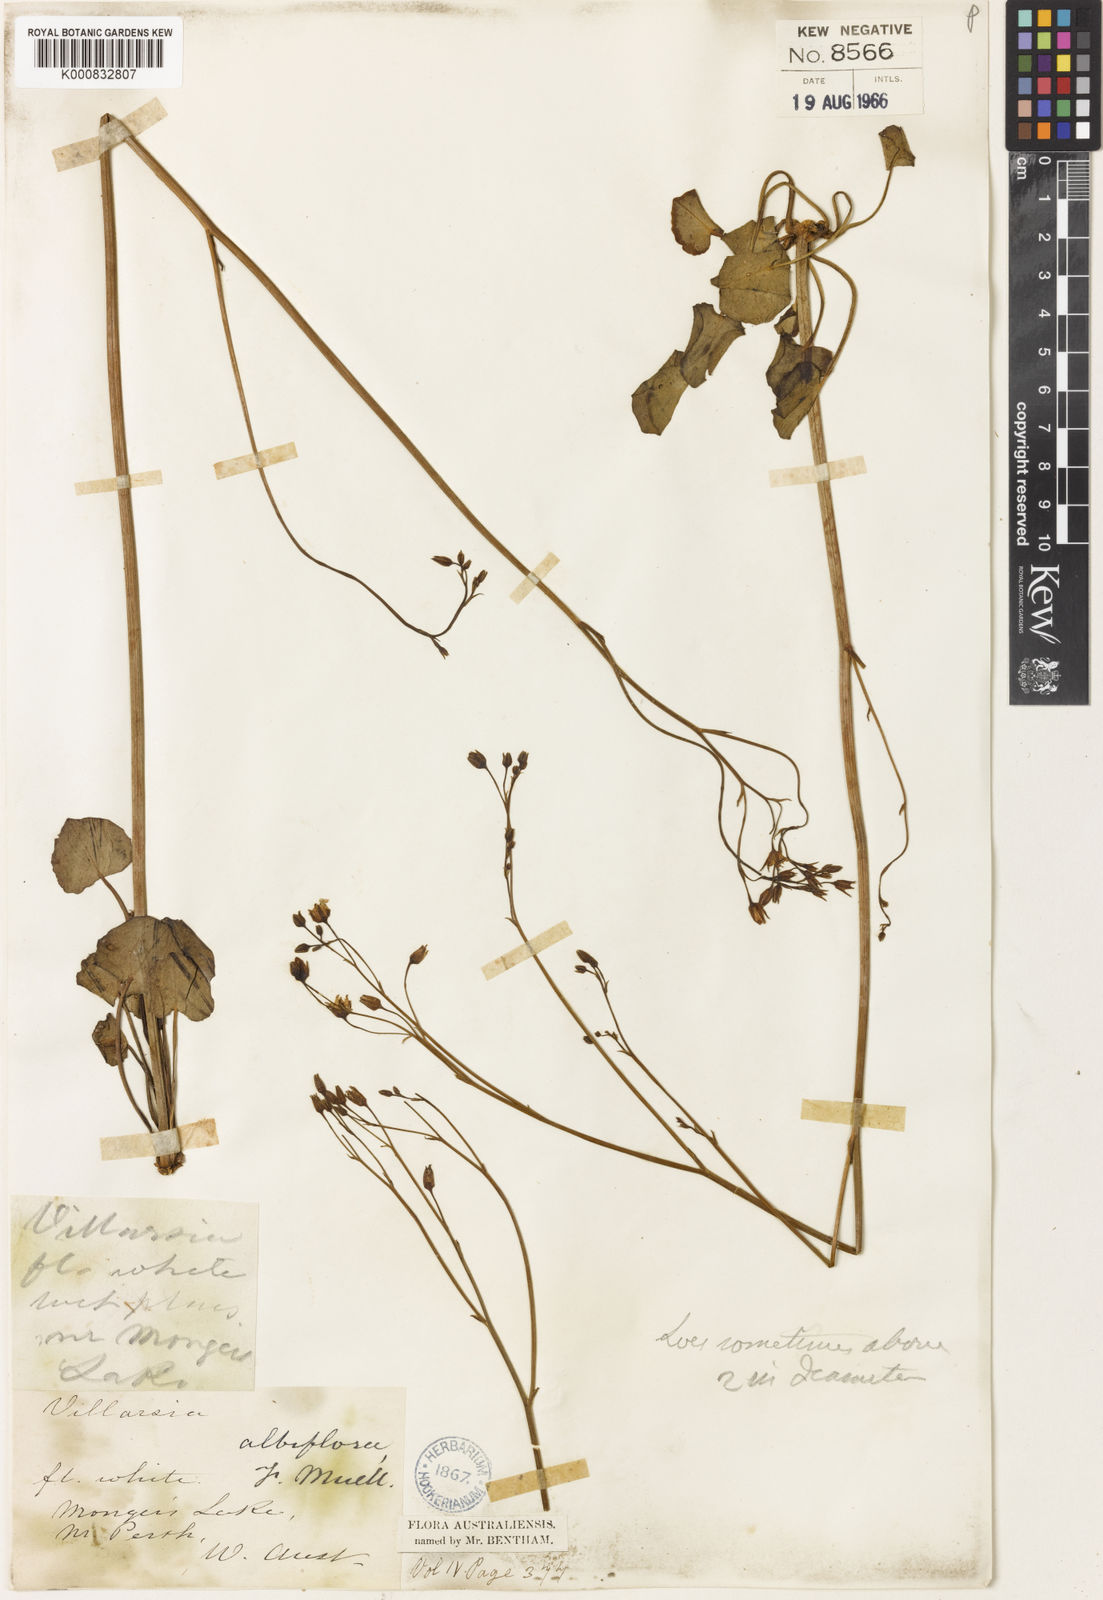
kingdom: Plantae
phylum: Tracheophyta
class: Magnoliopsida
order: Asterales
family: Menyanthaceae
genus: Ornduffia
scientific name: Ornduffia albiflora
